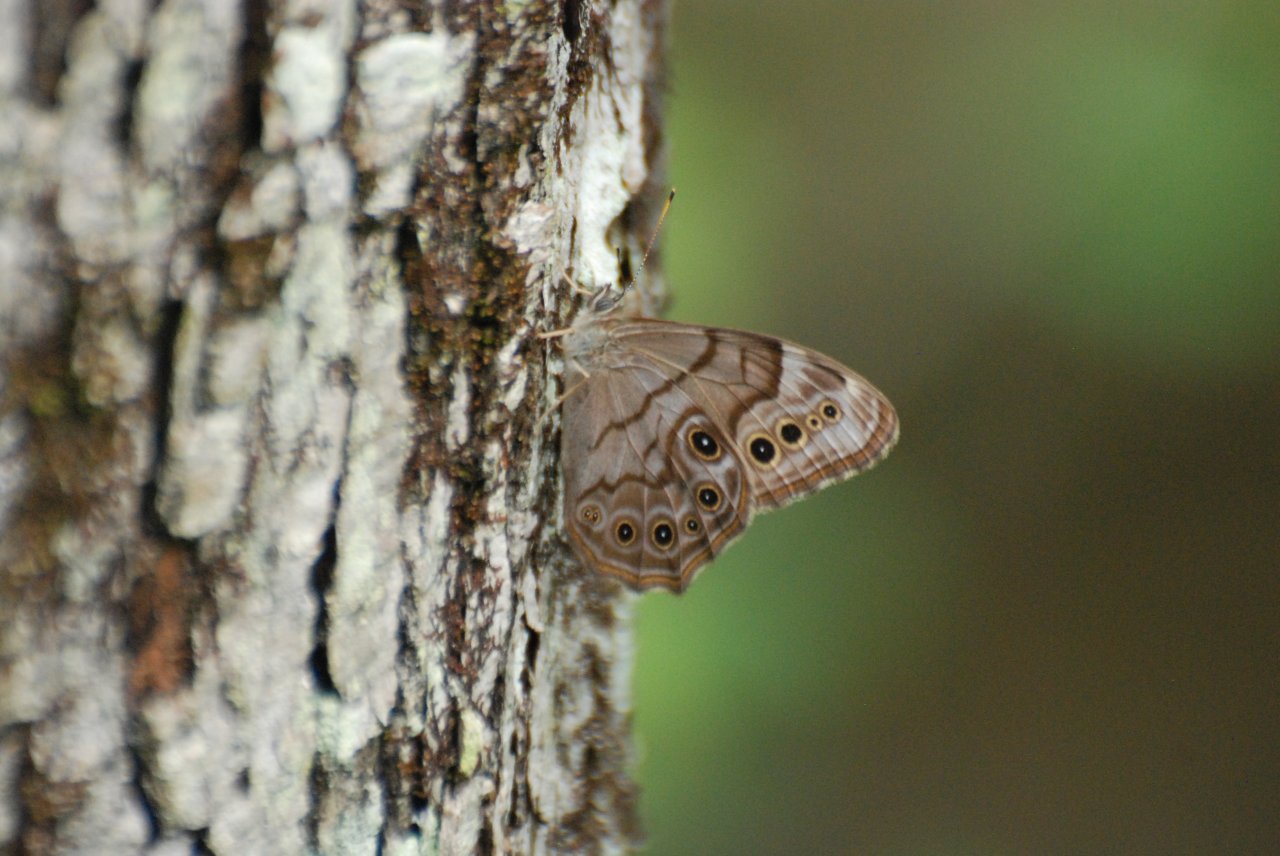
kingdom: Animalia
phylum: Arthropoda
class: Insecta
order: Lepidoptera
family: Nymphalidae
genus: Lethe
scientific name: Lethe anthedon
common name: Northern Pearly-Eye
